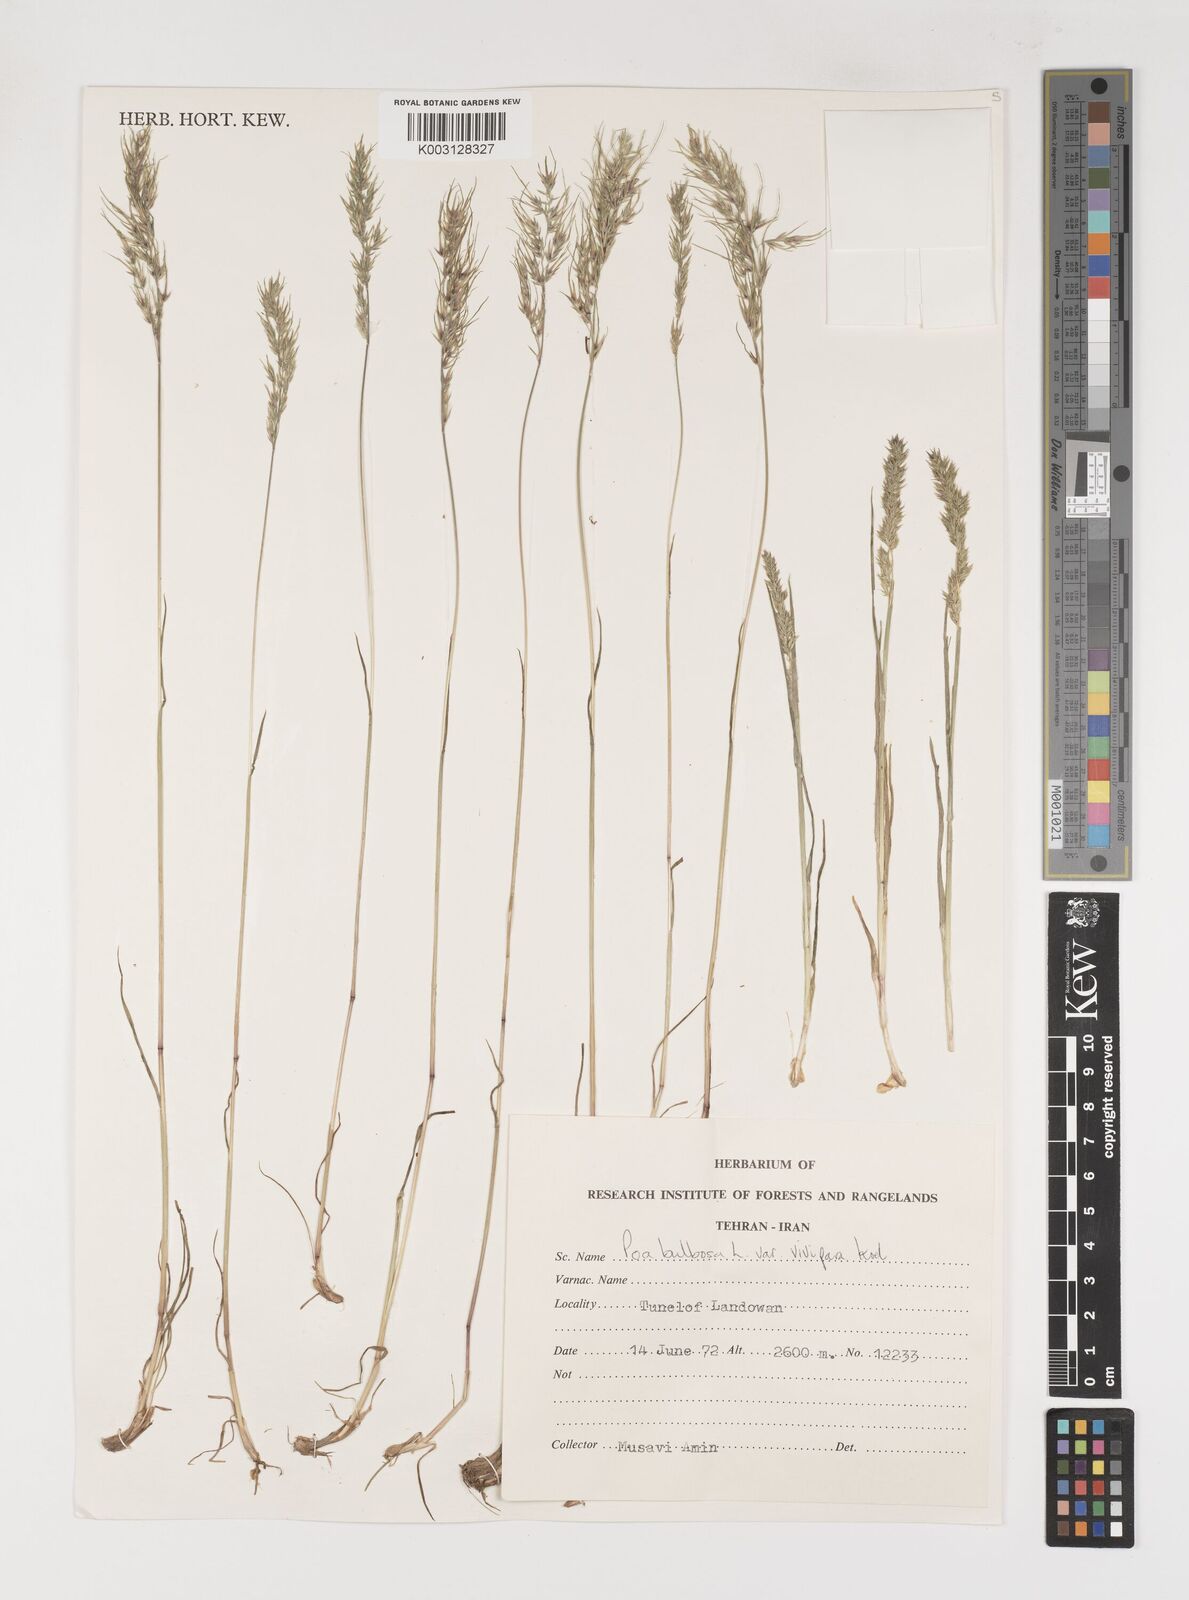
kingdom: Plantae
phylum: Tracheophyta
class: Liliopsida
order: Poales
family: Poaceae
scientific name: Poaceae
